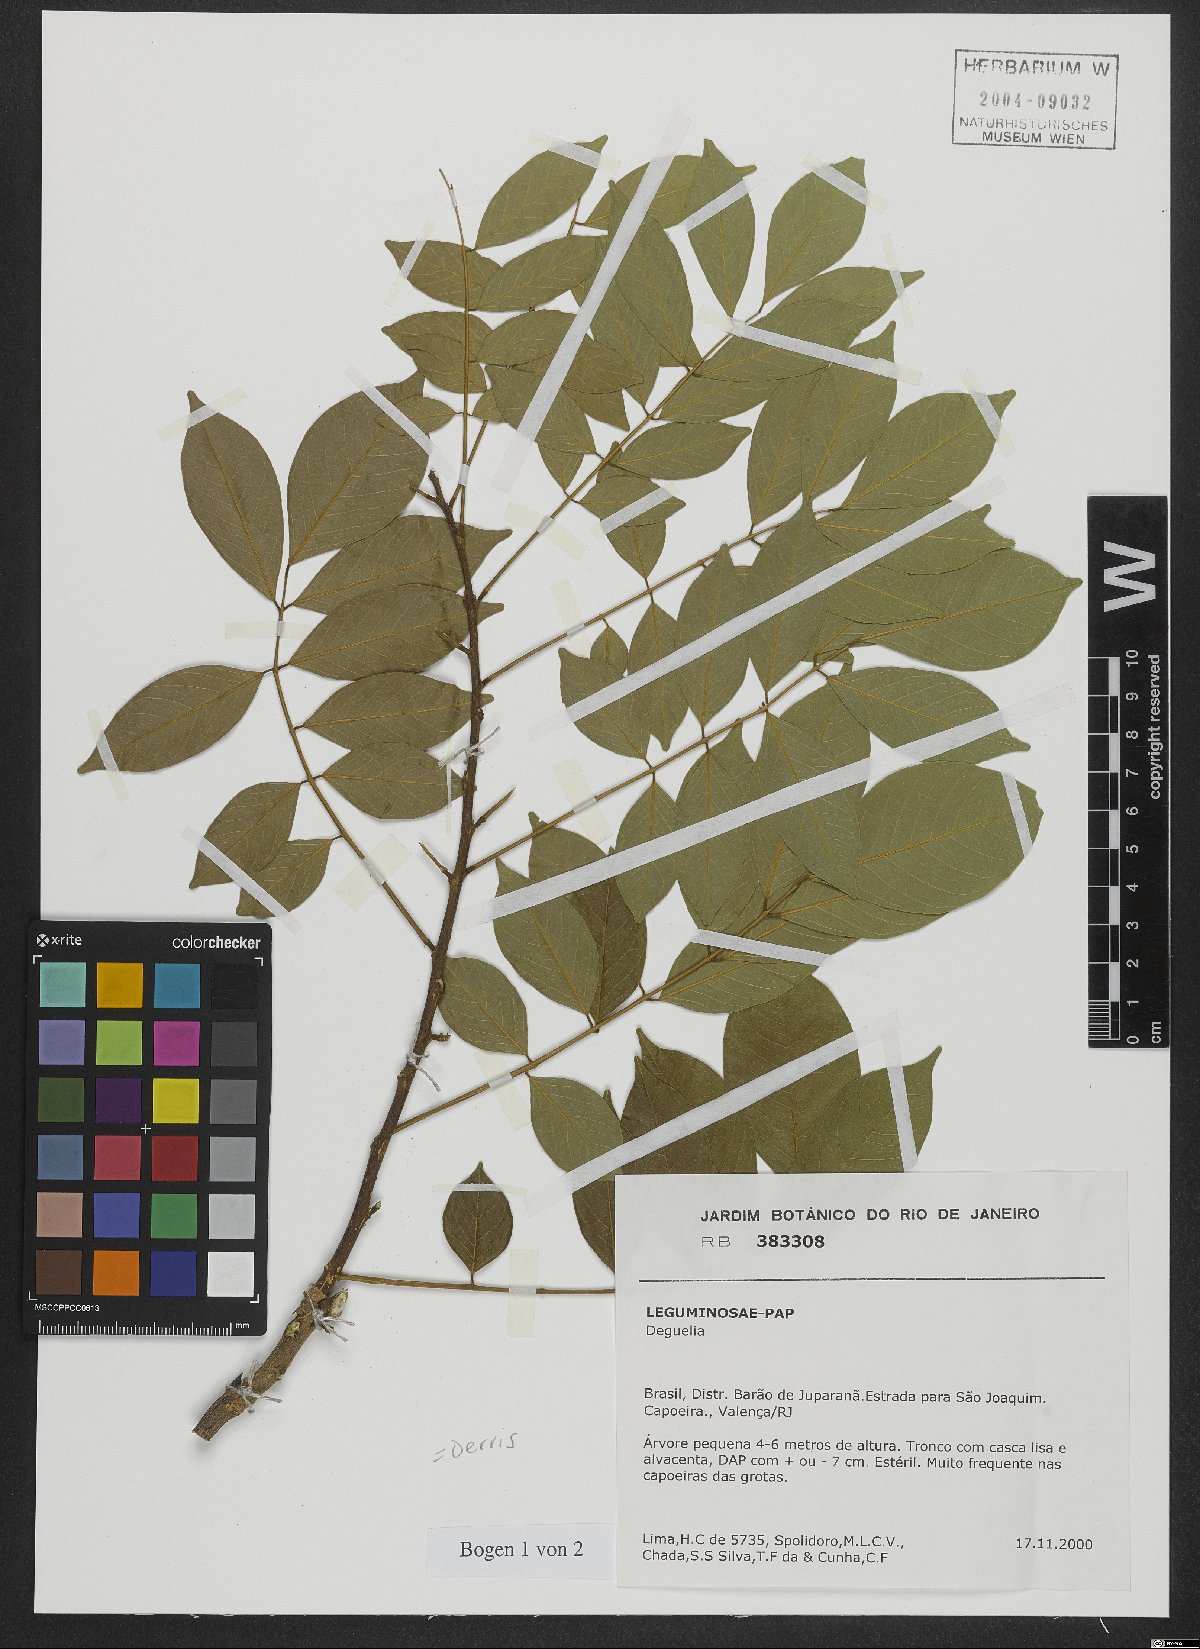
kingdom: Plantae
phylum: Tracheophyta
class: Magnoliopsida
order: Fabales
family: Fabaceae
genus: Derris
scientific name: Derris
